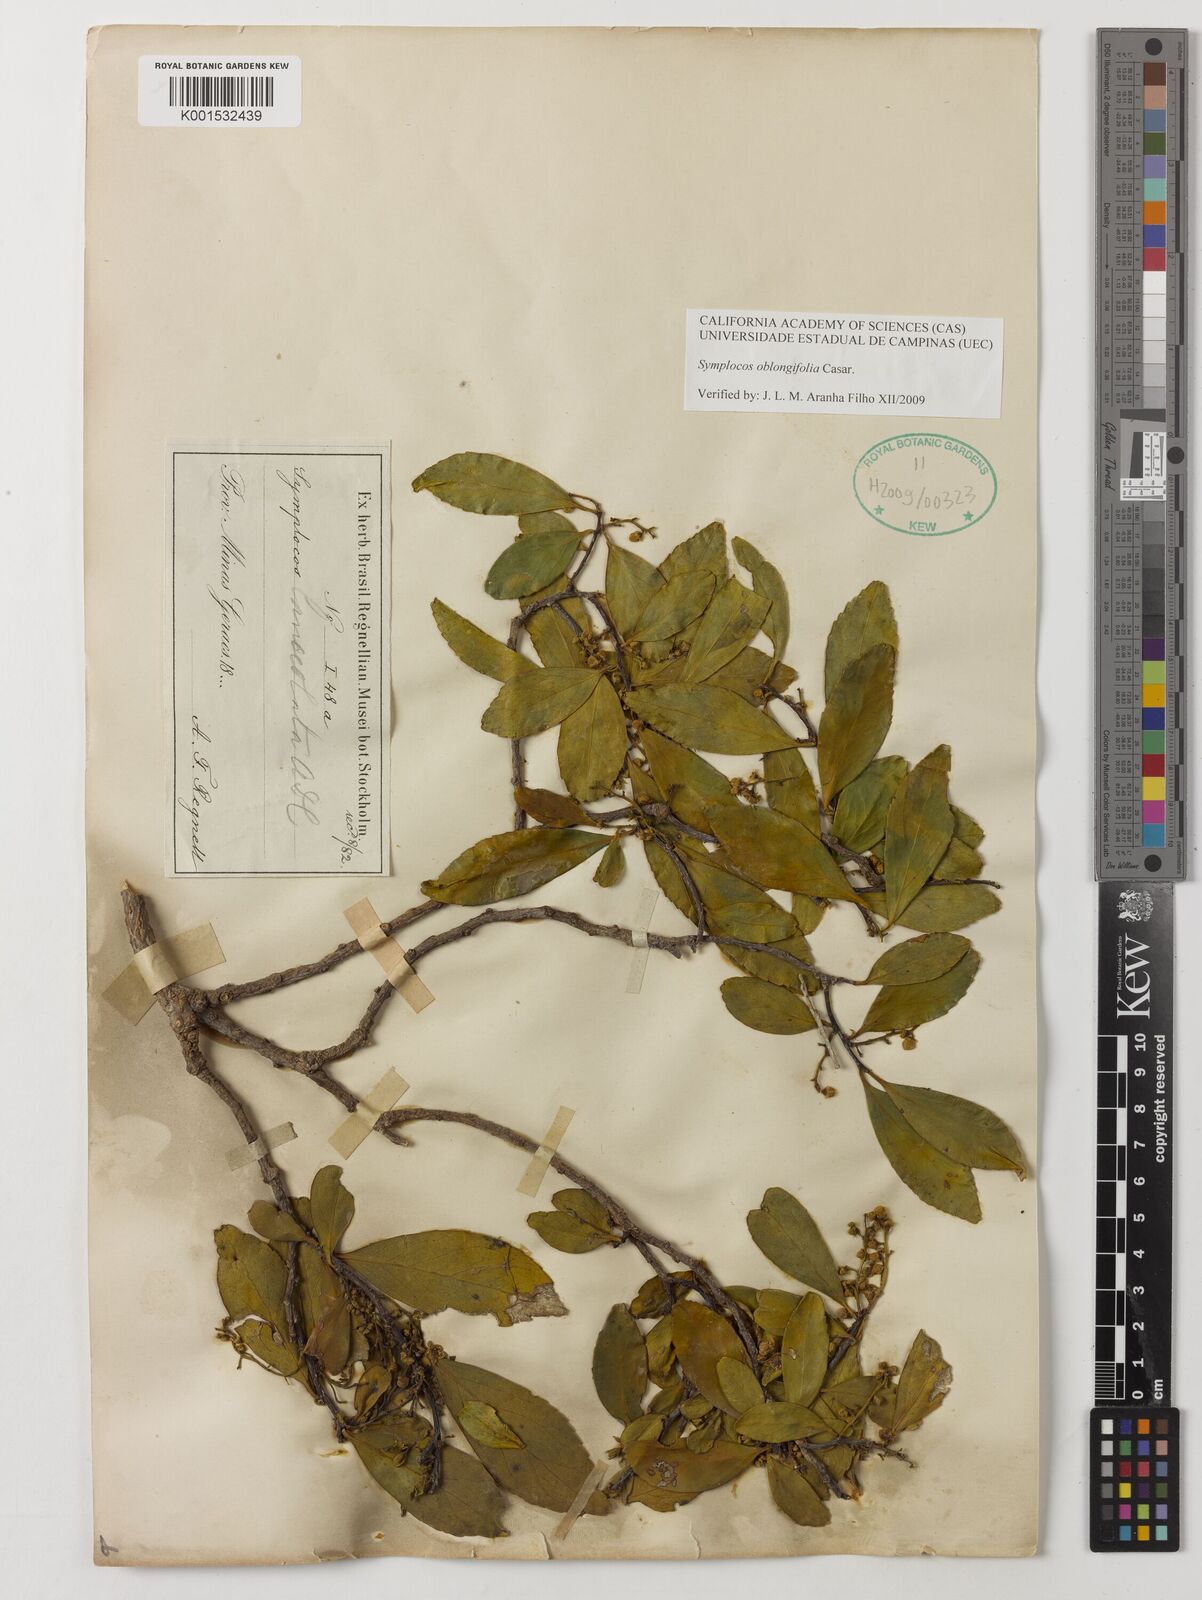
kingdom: Plantae
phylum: Tracheophyta
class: Magnoliopsida
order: Ericales
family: Symplocaceae
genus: Symplocos
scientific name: Symplocos oblongifolia
